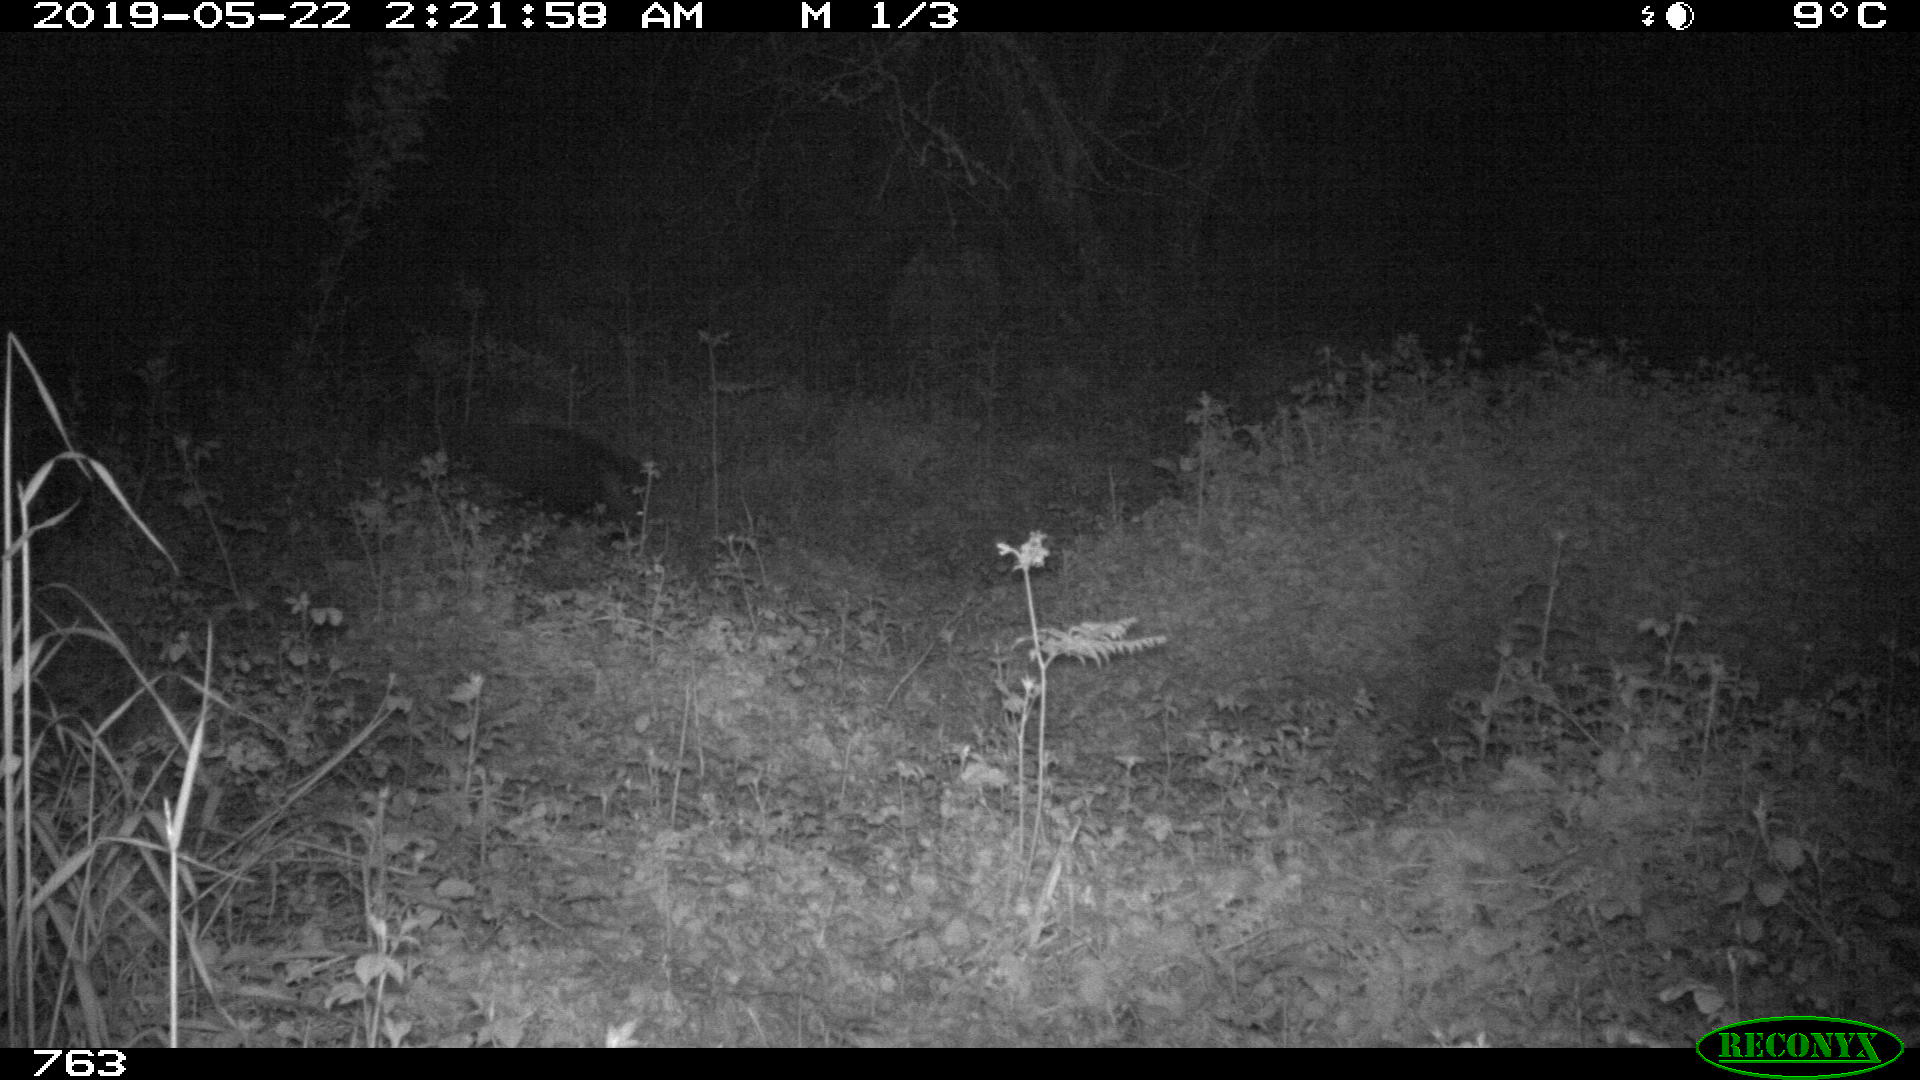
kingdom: Animalia
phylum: Chordata
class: Mammalia
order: Artiodactyla
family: Suidae
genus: Sus
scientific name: Sus scrofa
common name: Wild boar
